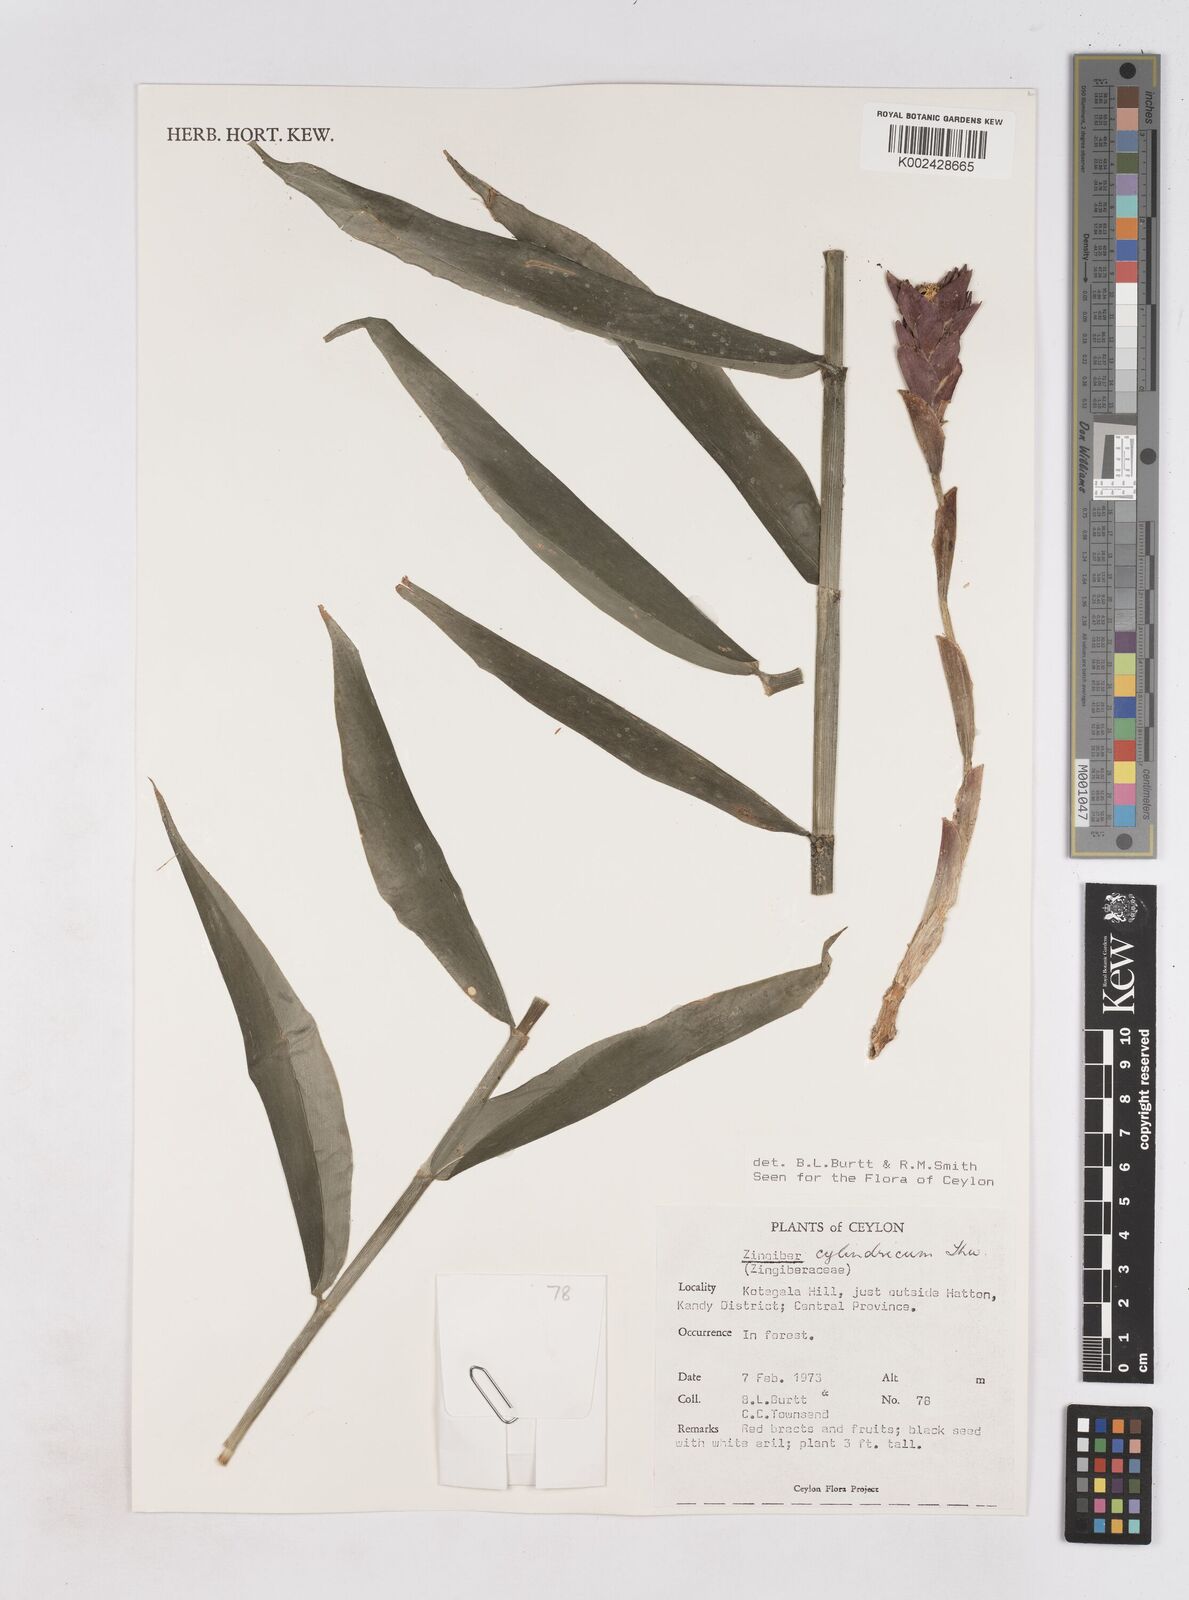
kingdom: Plantae
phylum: Tracheophyta
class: Liliopsida
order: Zingiberales
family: Zingiberaceae
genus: Zingiber
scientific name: Zingiber cylindricum
